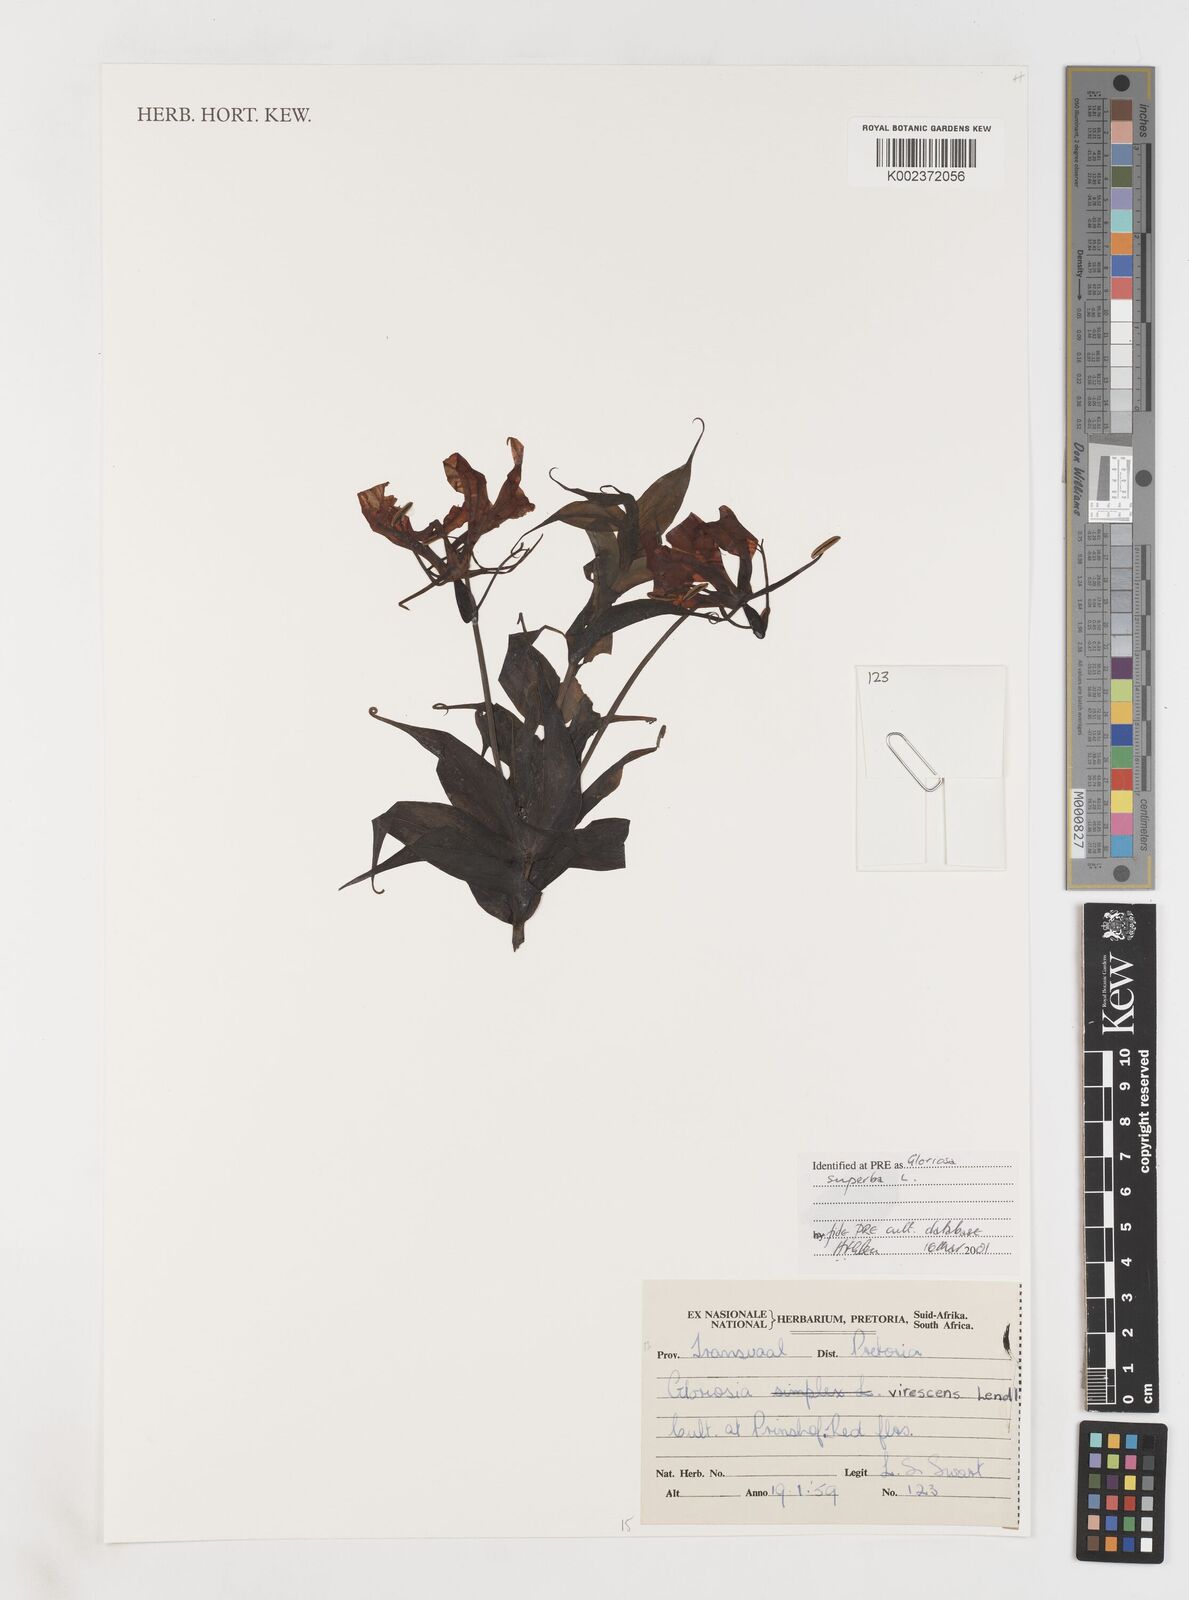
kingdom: Plantae
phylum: Tracheophyta
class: Liliopsida
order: Liliales
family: Colchicaceae
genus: Gloriosa
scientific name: Gloriosa simplex
